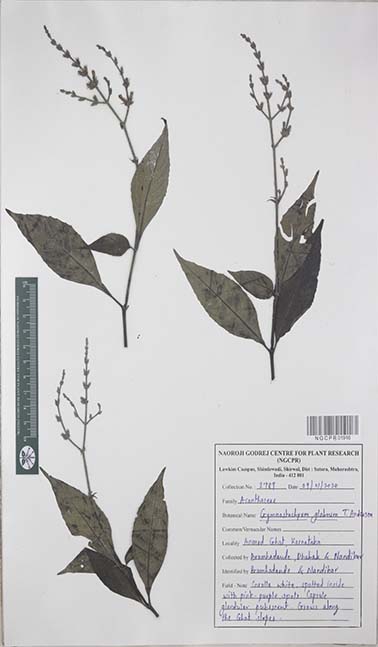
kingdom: Plantae
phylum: Tracheophyta
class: Magnoliopsida
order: Lamiales
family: Acanthaceae
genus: Gymnostachyum
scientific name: Gymnostachyum glabrum
